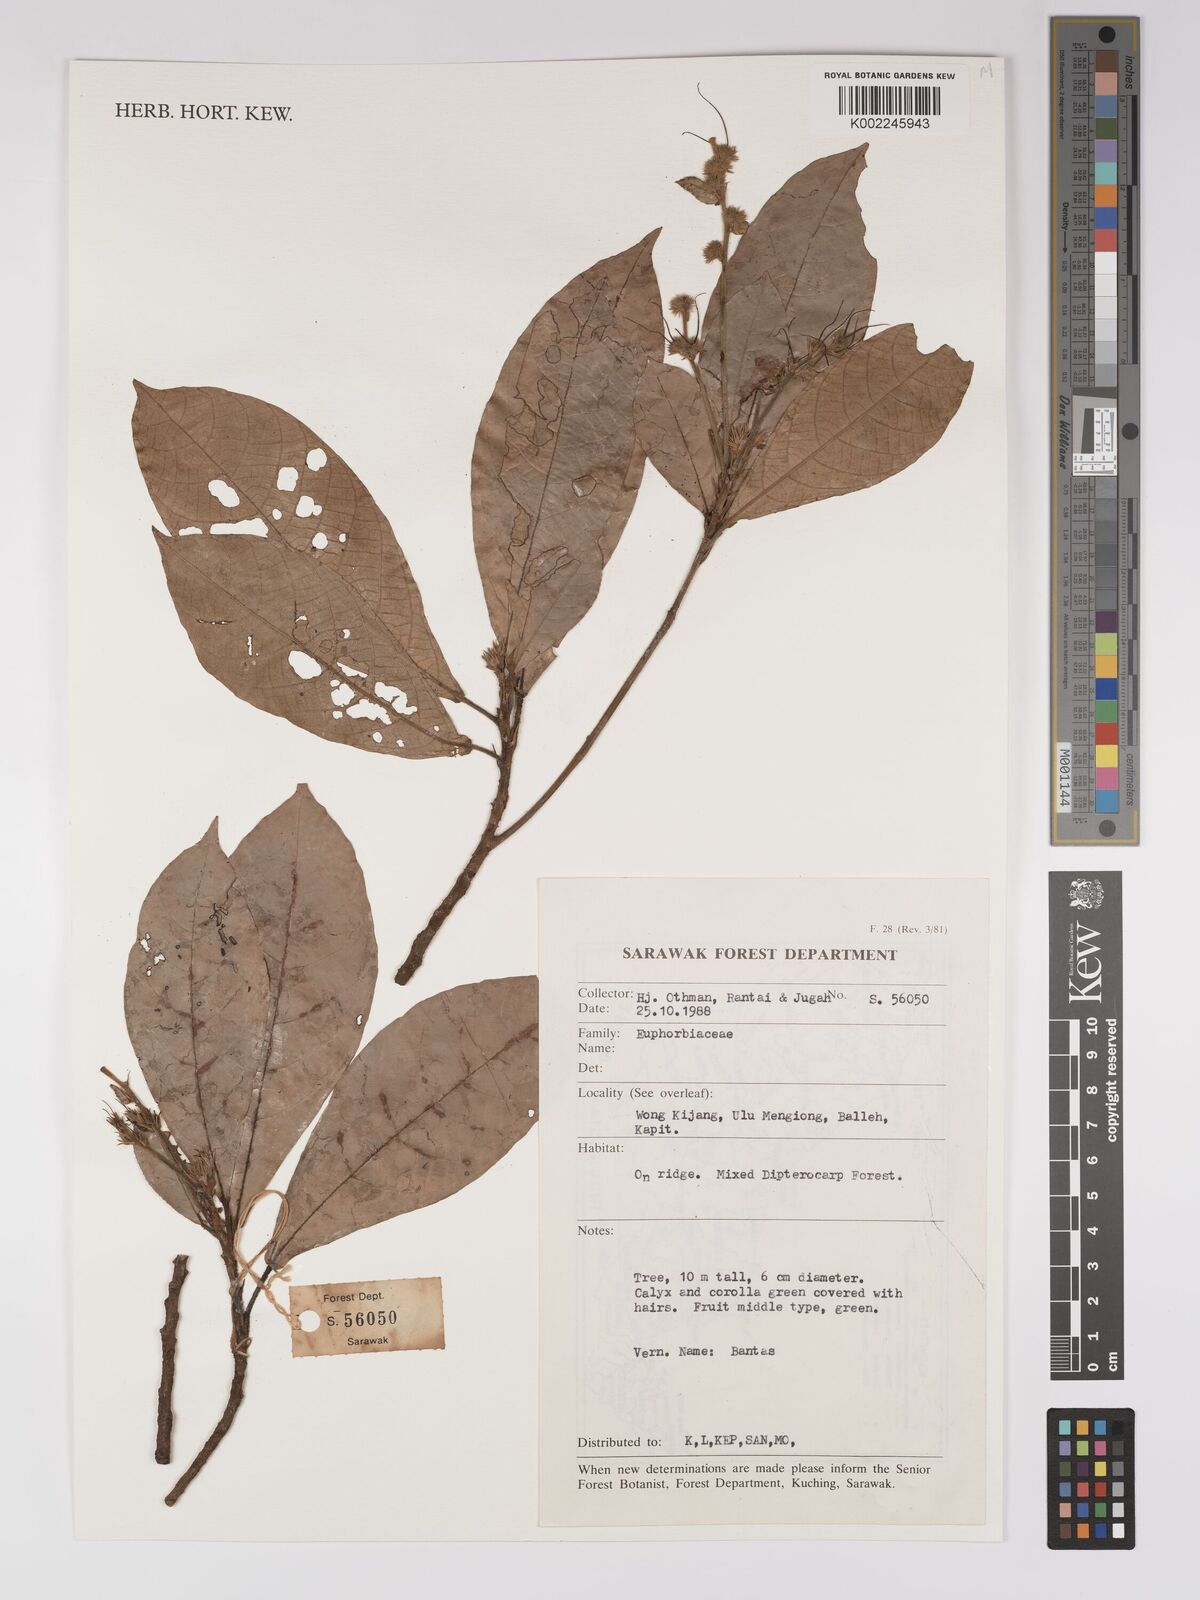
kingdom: Plantae
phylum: Tracheophyta
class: Magnoliopsida
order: Malpighiales
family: Euphorbiaceae
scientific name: Euphorbiaceae
